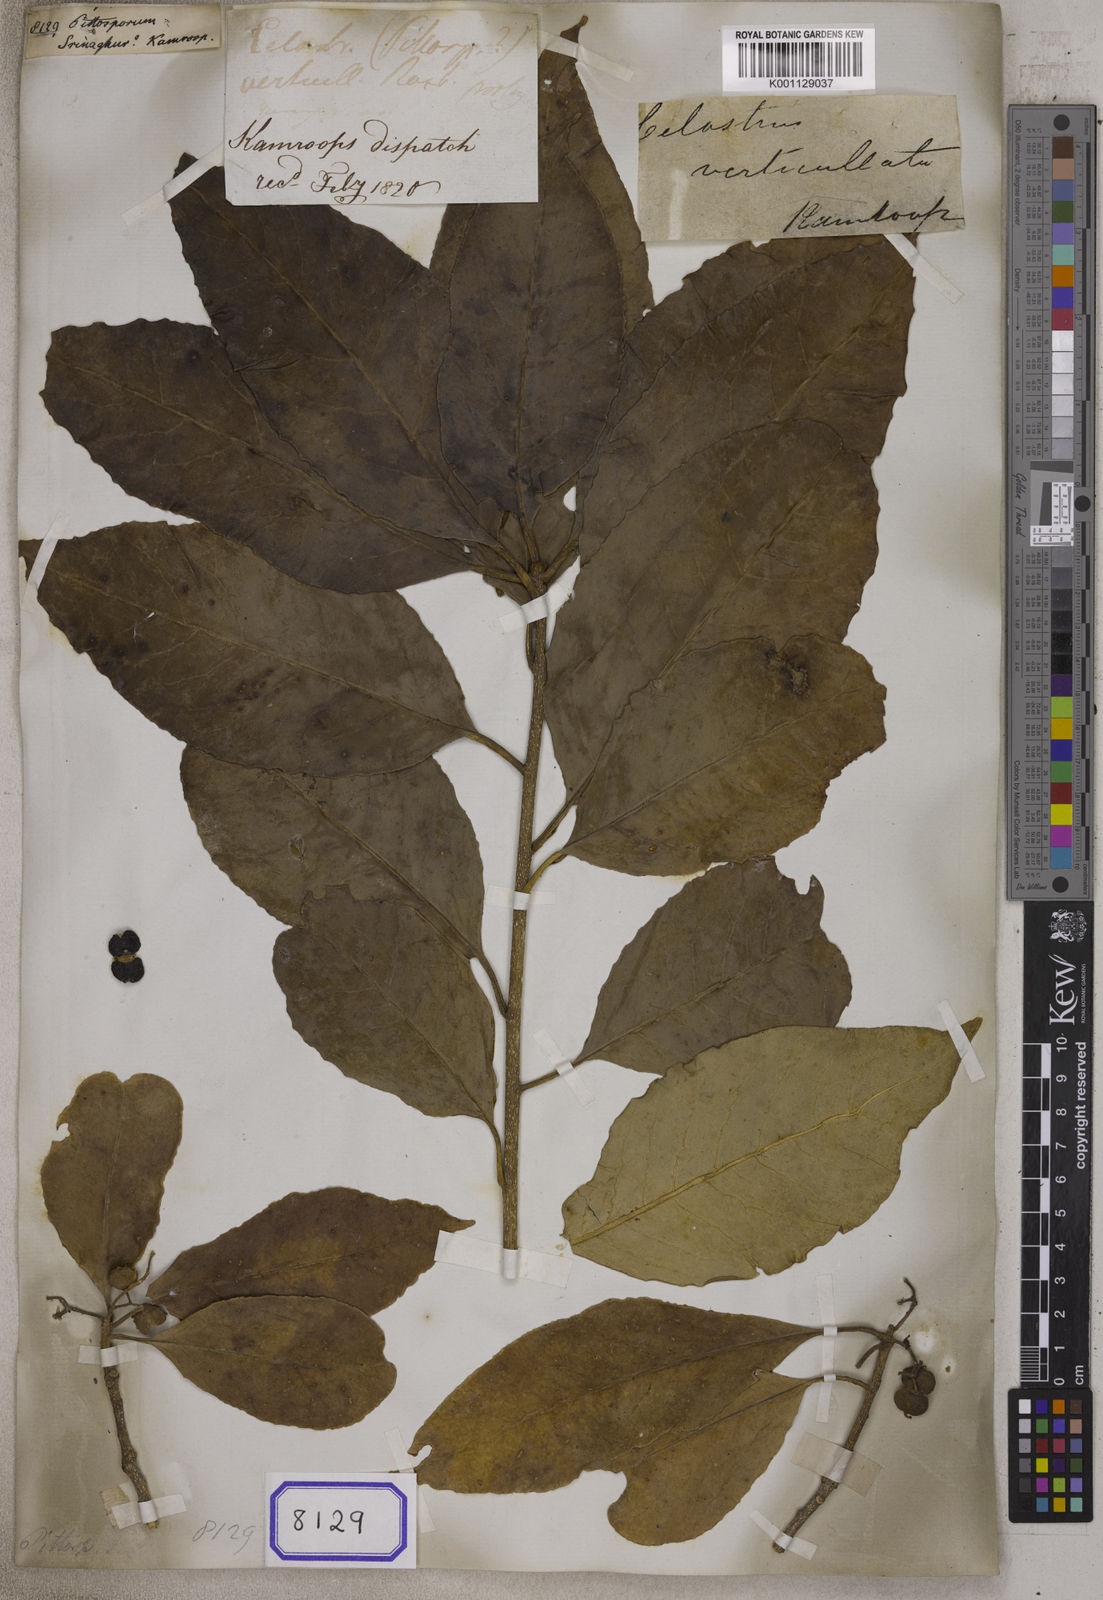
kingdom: Plantae
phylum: Tracheophyta
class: Magnoliopsida
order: Apiales
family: Pittosporaceae
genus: Pittosporum
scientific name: Pittosporum
